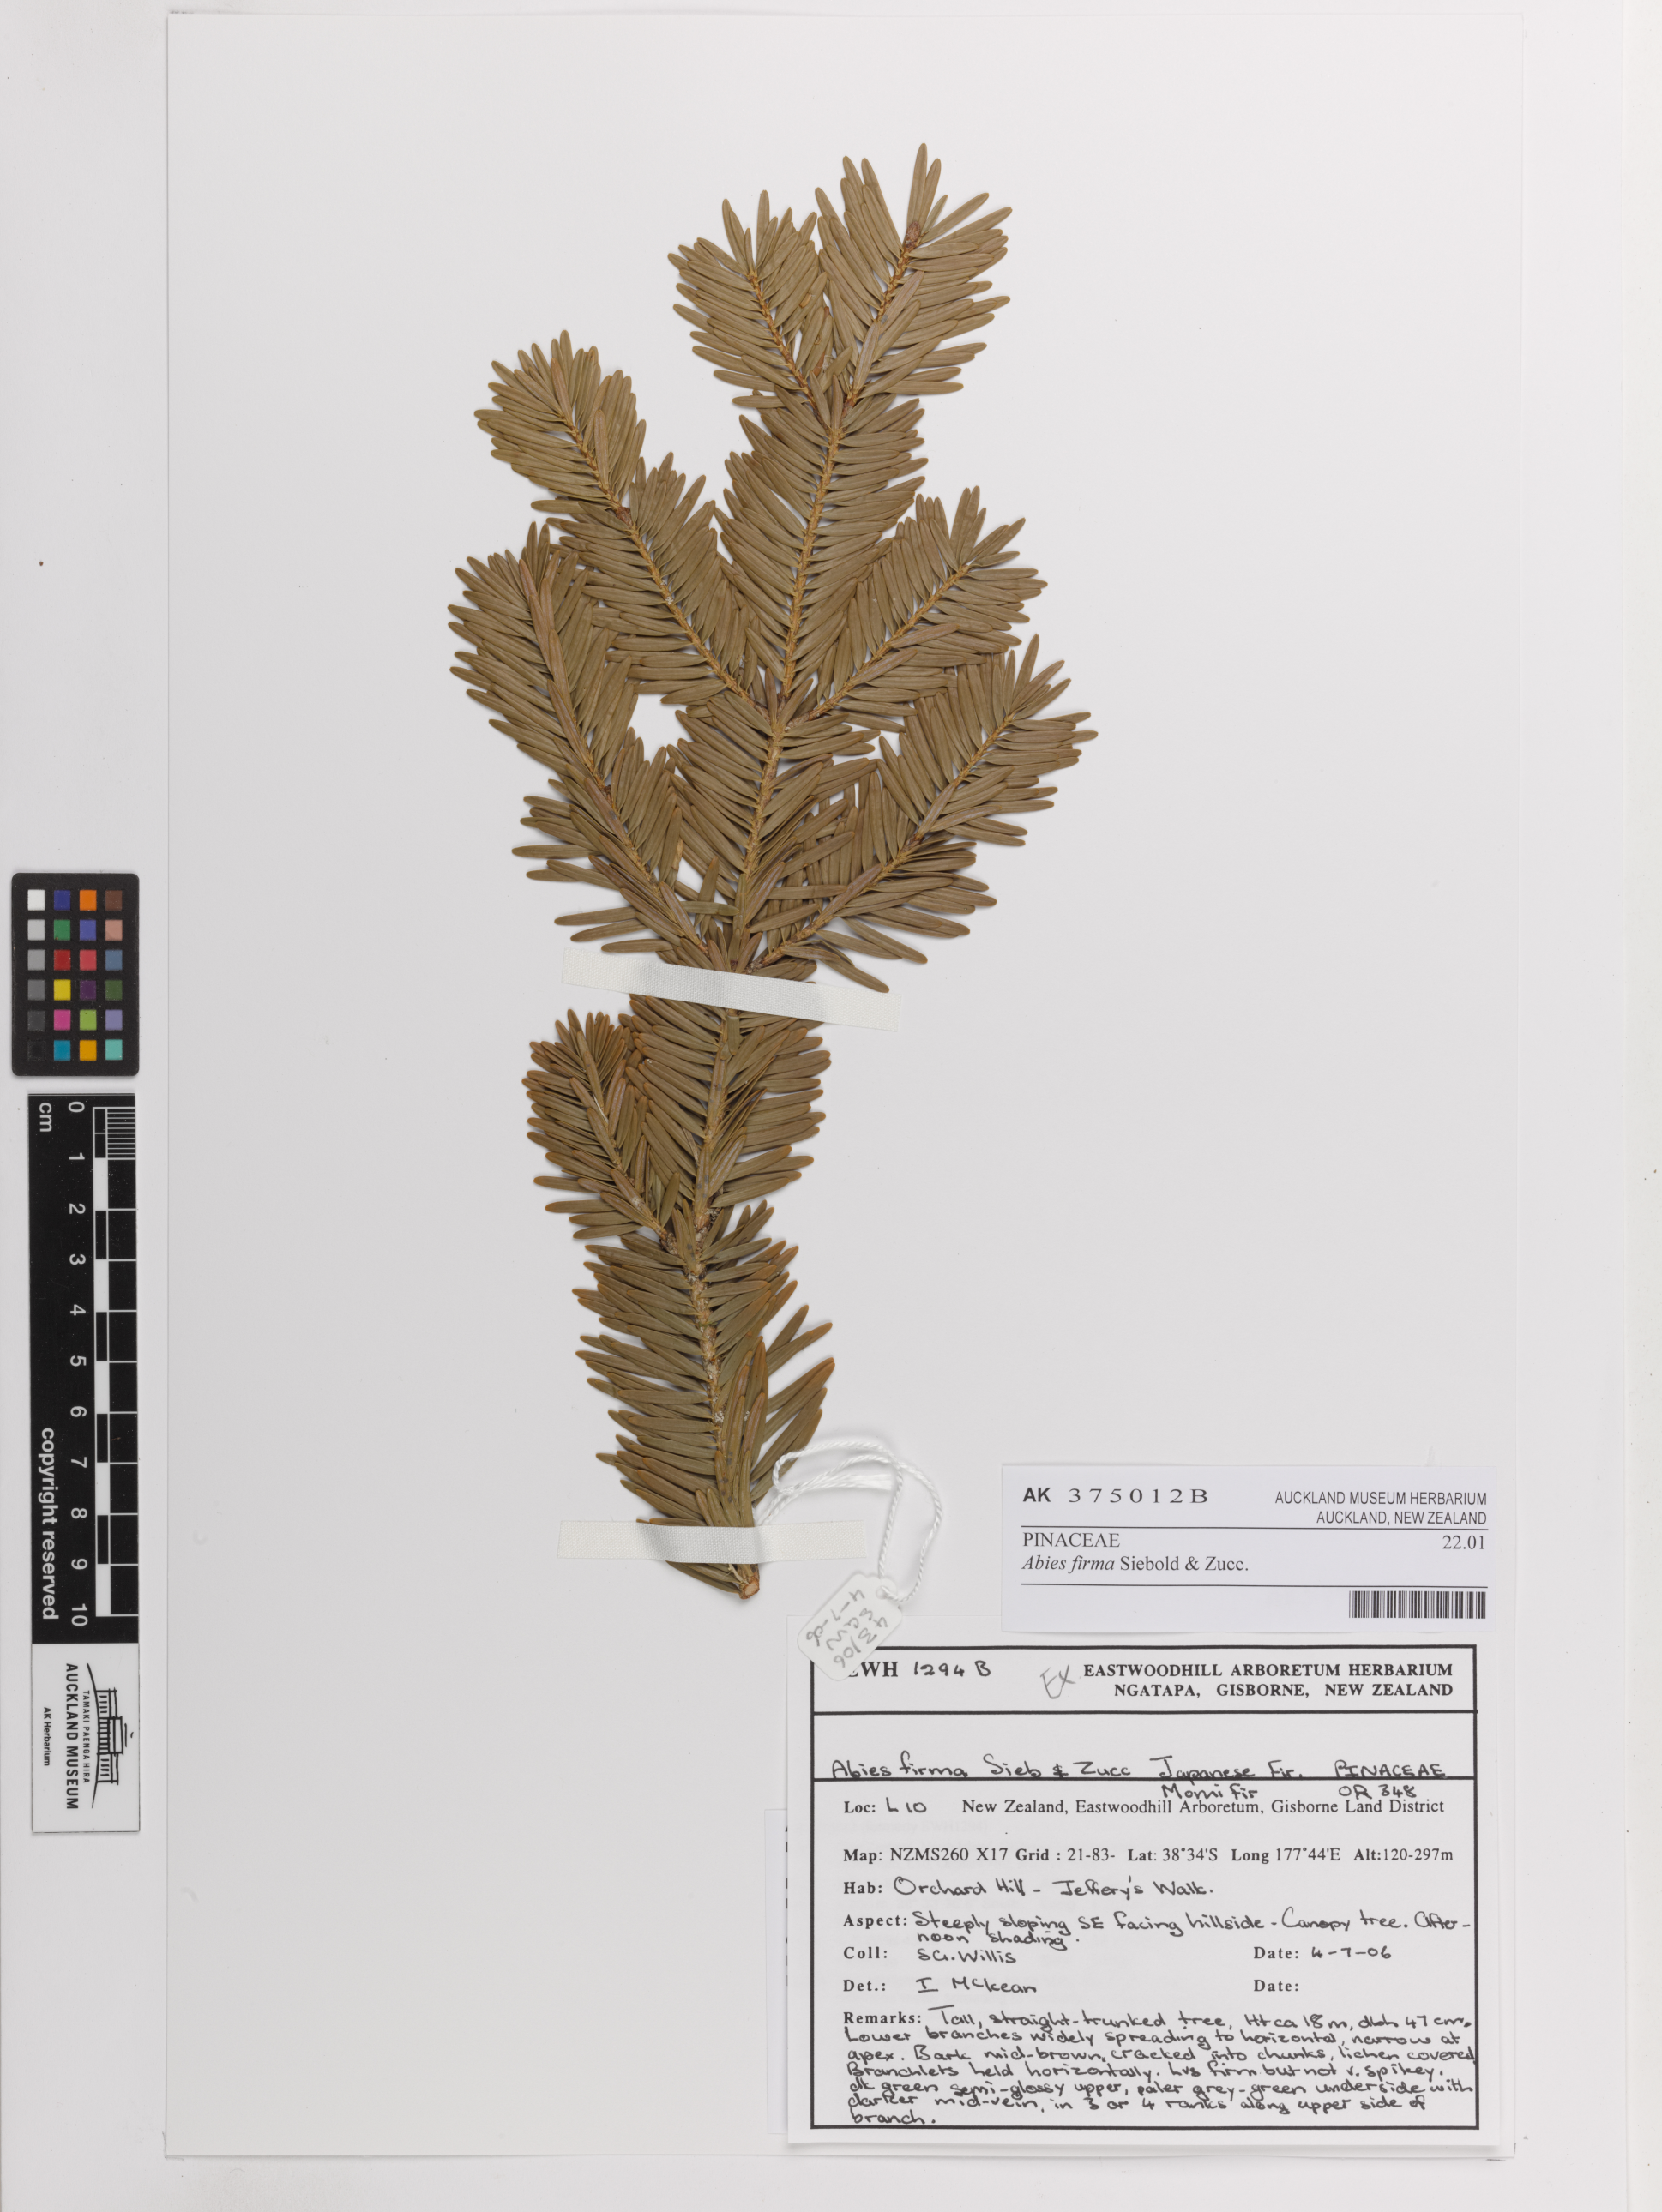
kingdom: Plantae
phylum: Tracheophyta
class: Pinopsida
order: Pinales
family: Pinaceae
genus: Abies
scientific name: Abies firma
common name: Momi fir
